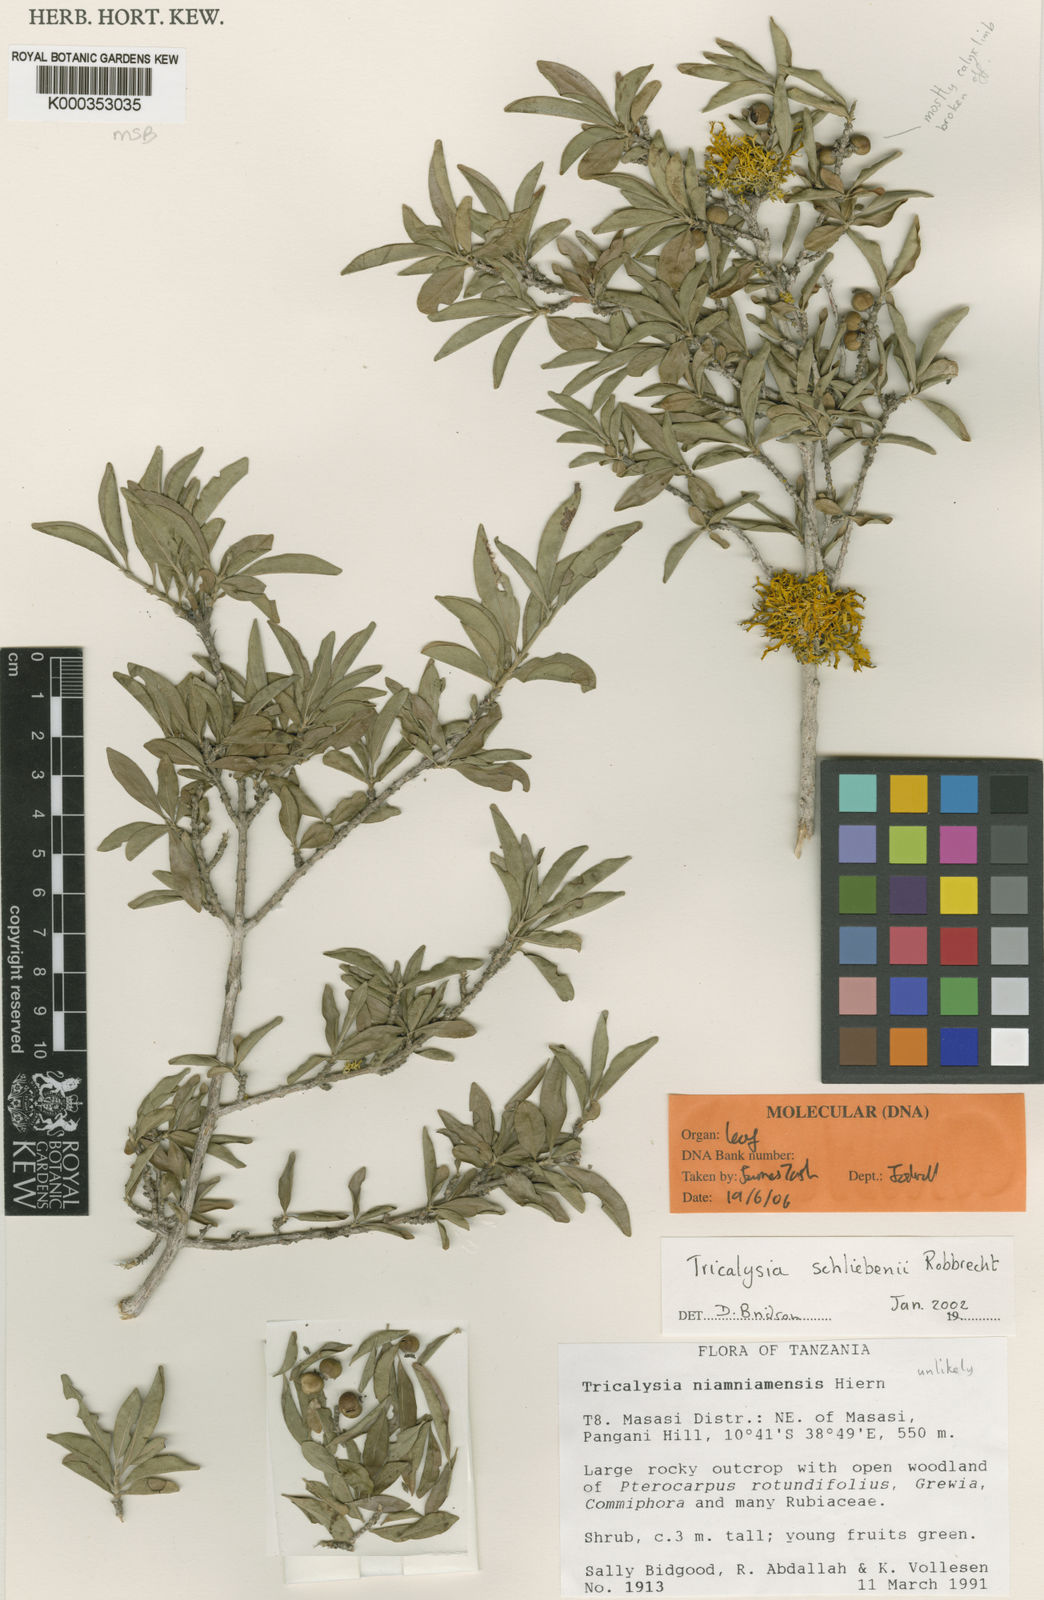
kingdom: Plantae
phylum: Tracheophyta
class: Magnoliopsida
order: Gentianales
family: Rubiaceae
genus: Tricalysia
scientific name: Tricalysia schliebenii
